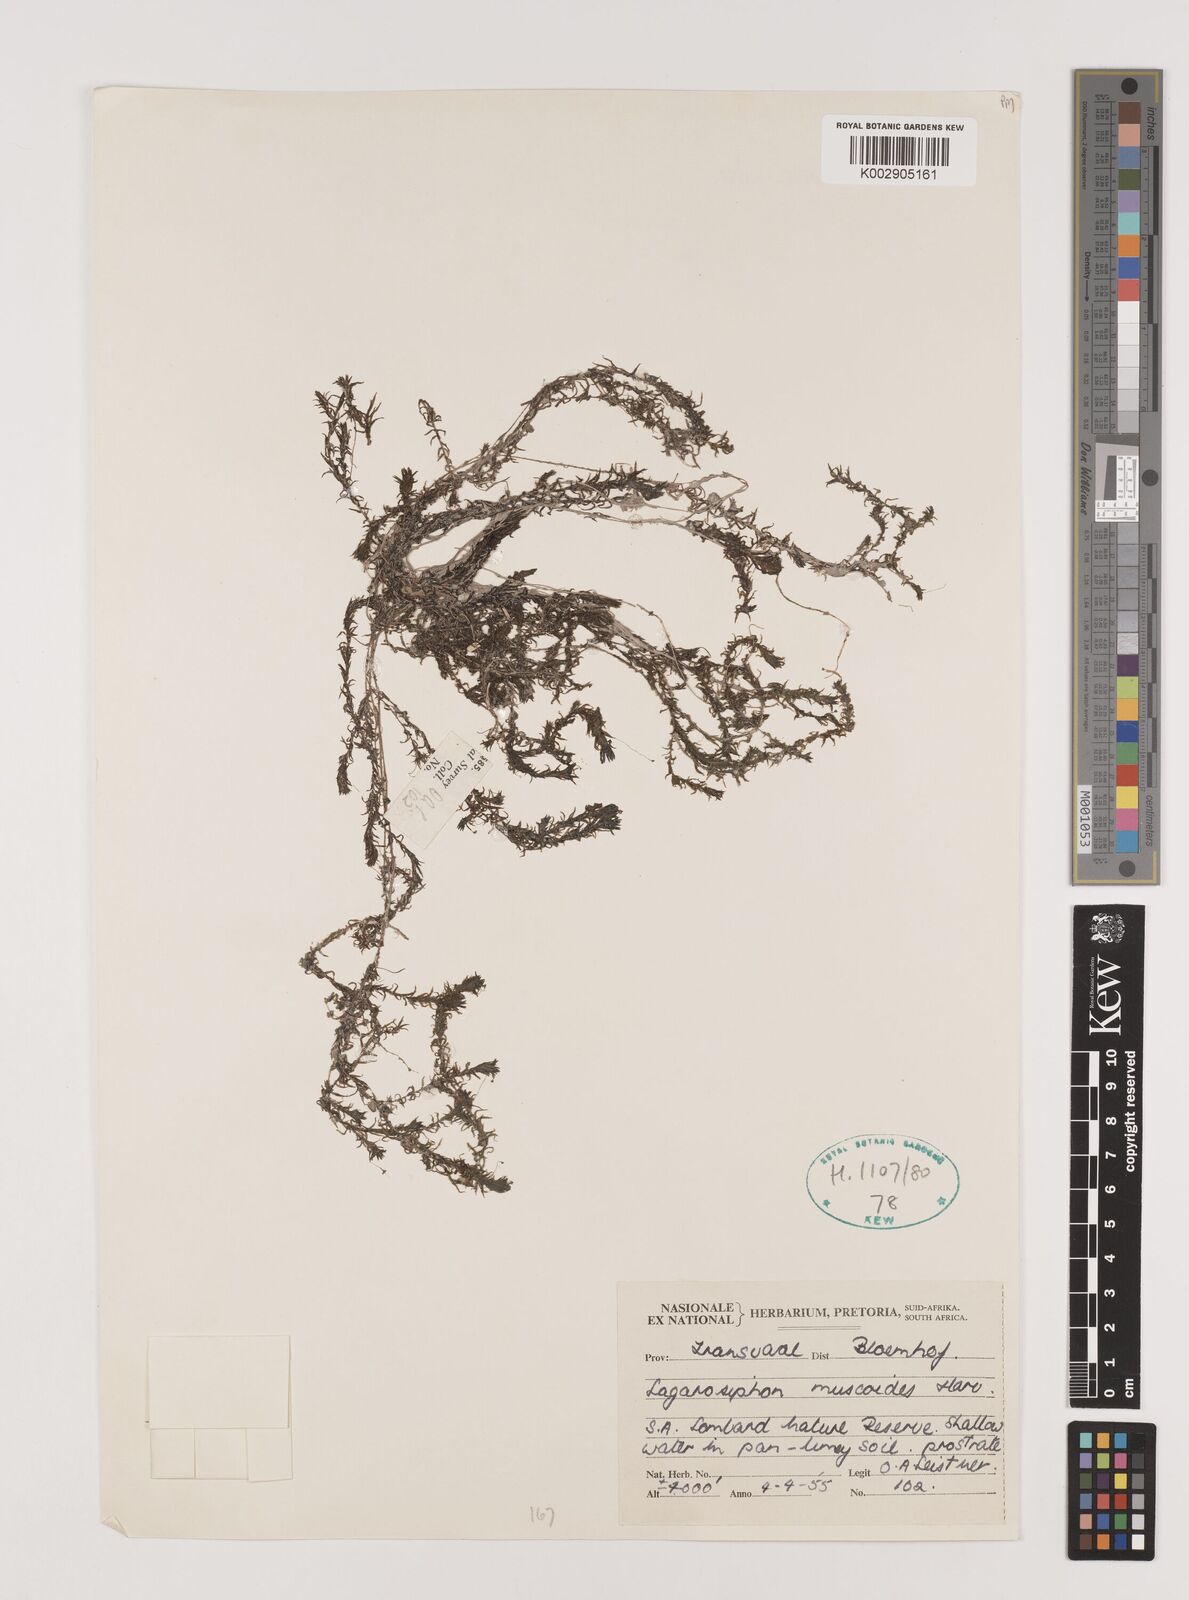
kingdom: Plantae
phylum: Tracheophyta
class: Liliopsida
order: Alismatales
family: Hydrocharitaceae
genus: Lagarosiphon
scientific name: Lagarosiphon muscoides
